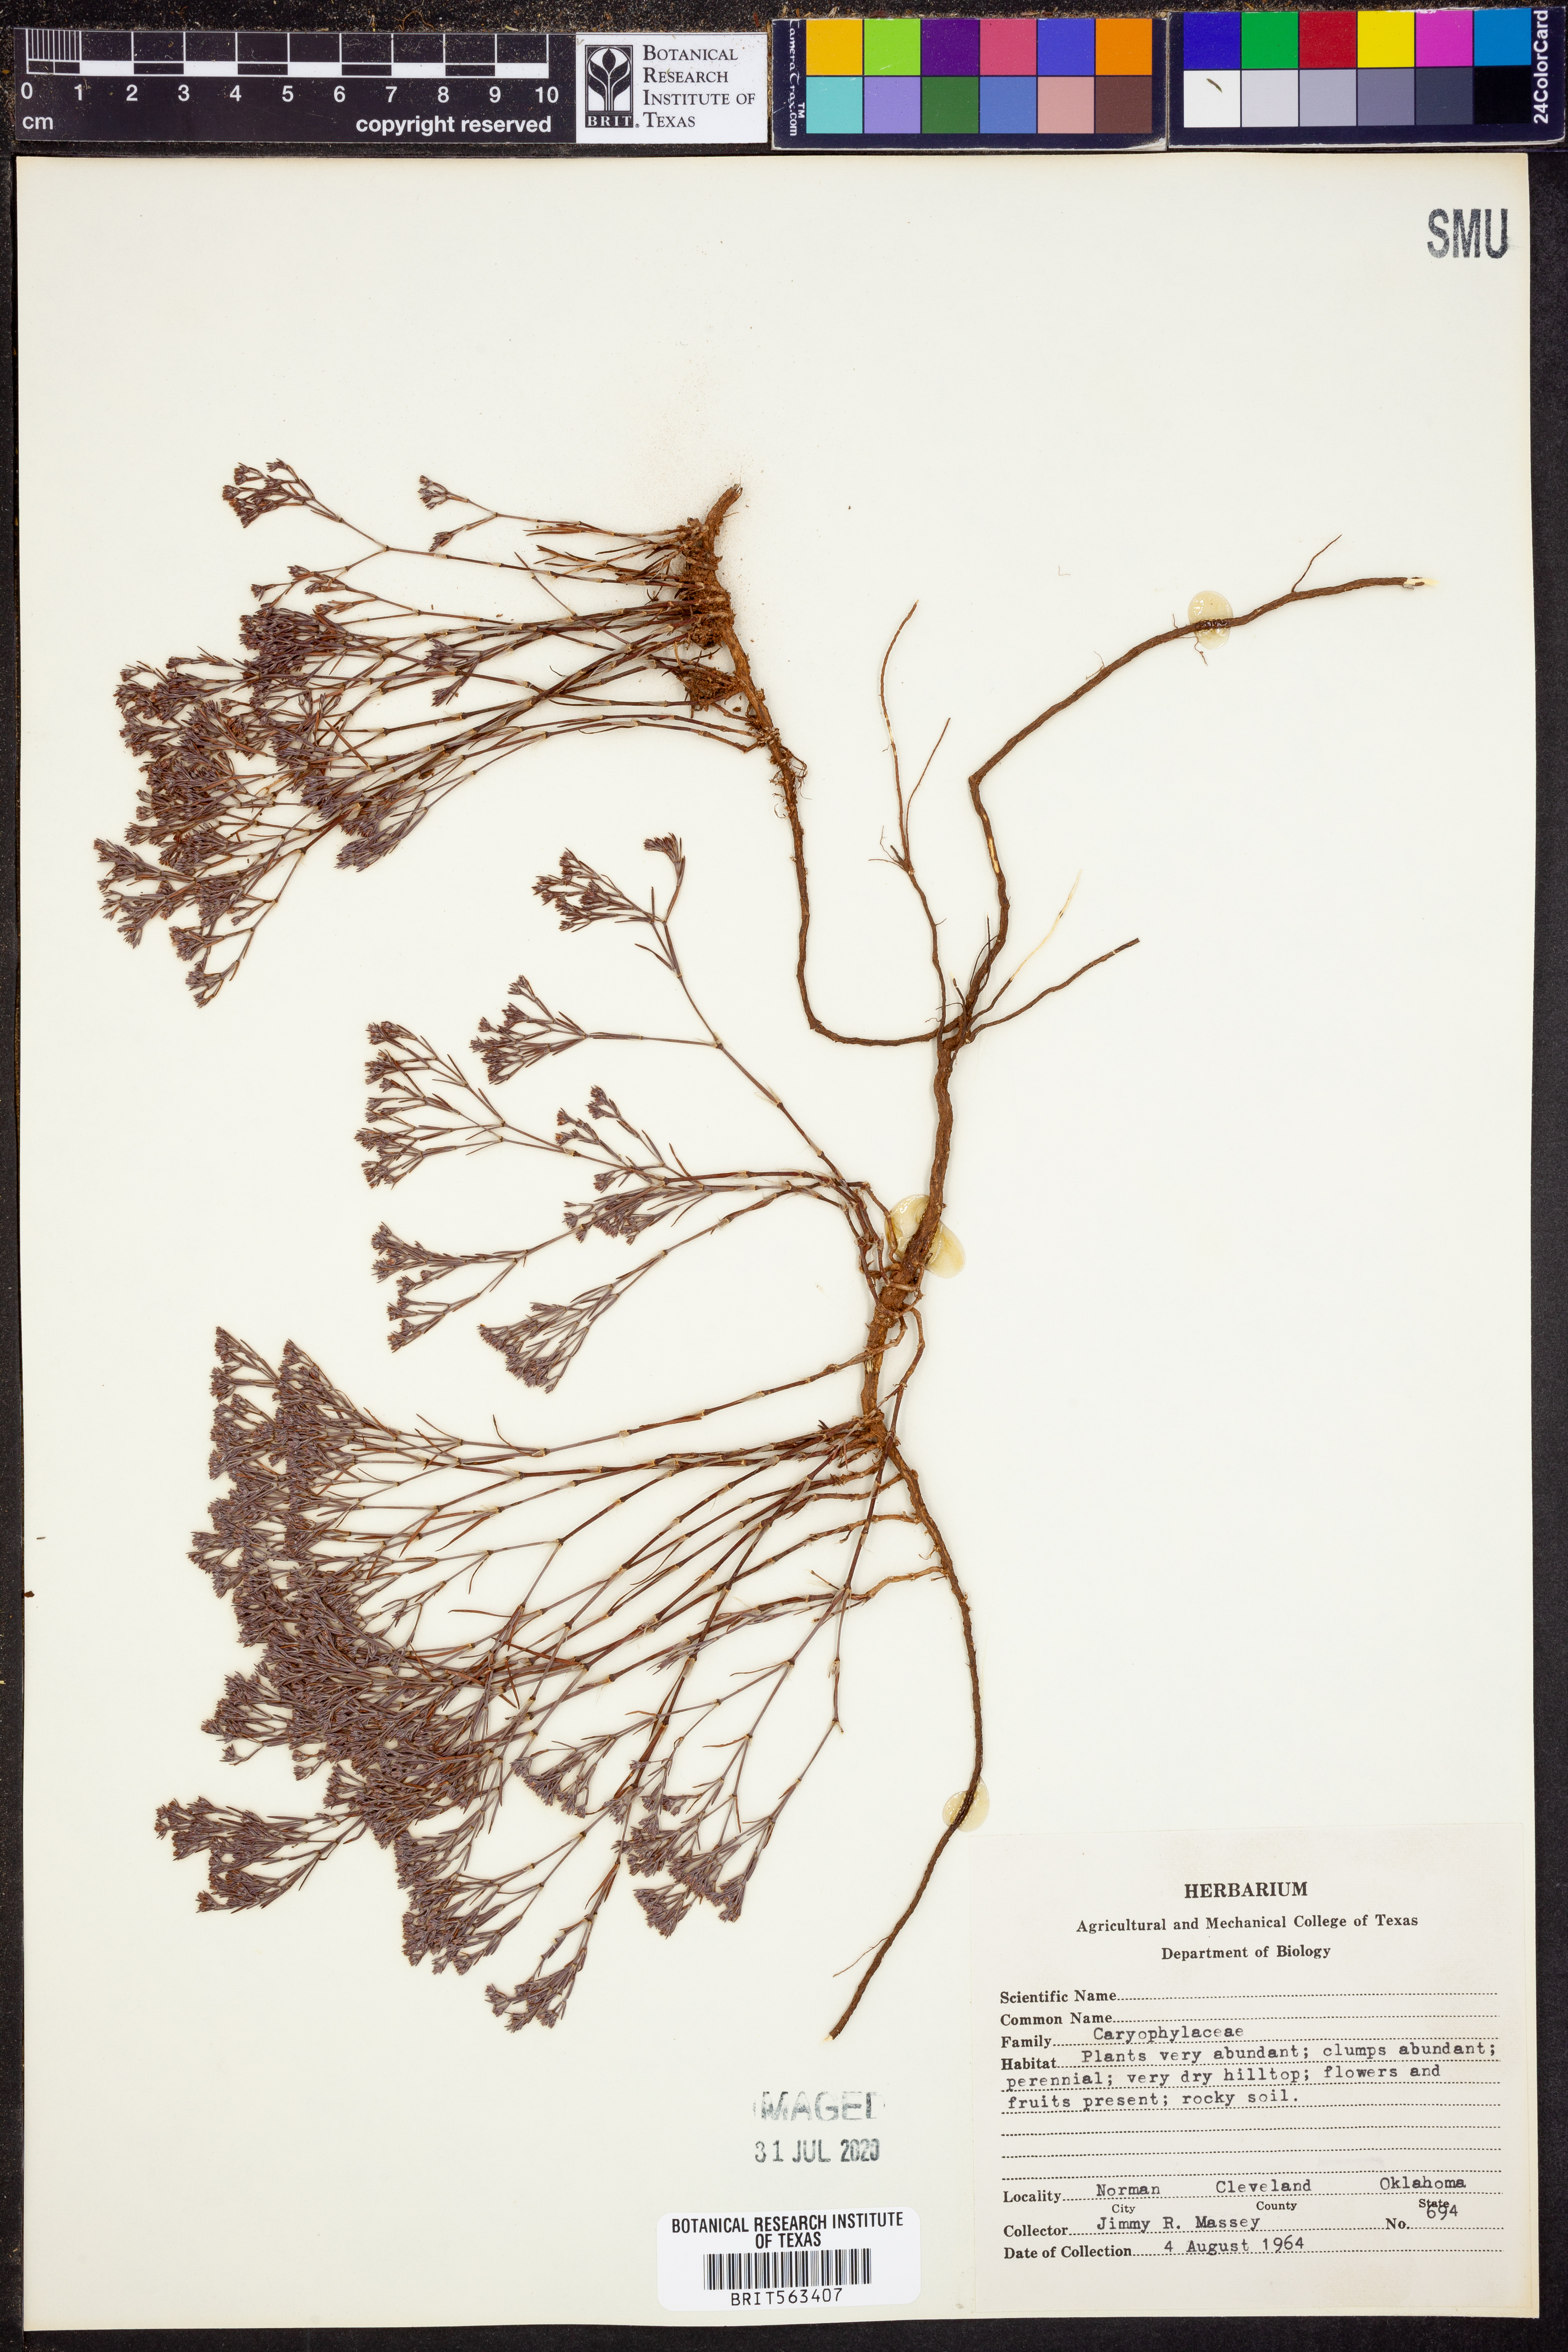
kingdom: Plantae
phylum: Tracheophyta
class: Magnoliopsida
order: Caryophyllales
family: Caryophyllaceae
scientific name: Caryophyllaceae
